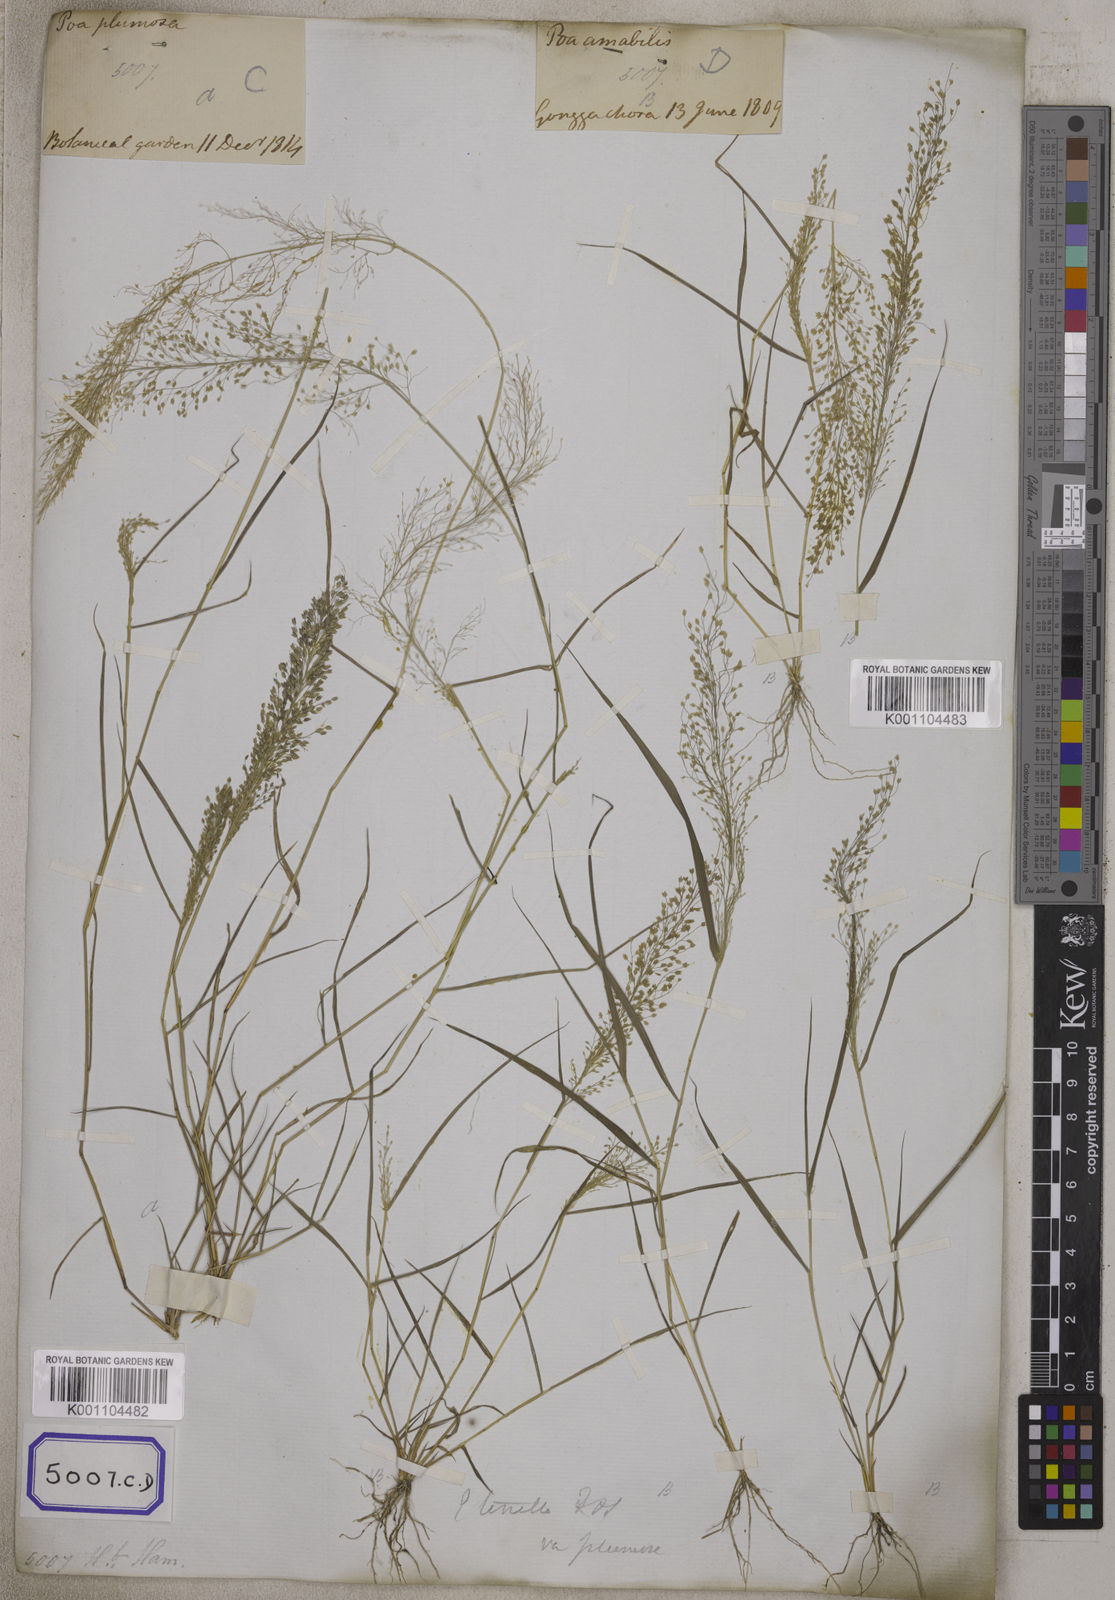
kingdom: Plantae
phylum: Tracheophyta
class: Liliopsida
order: Poales
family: Poaceae
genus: Eragrostis
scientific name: Eragrostis
